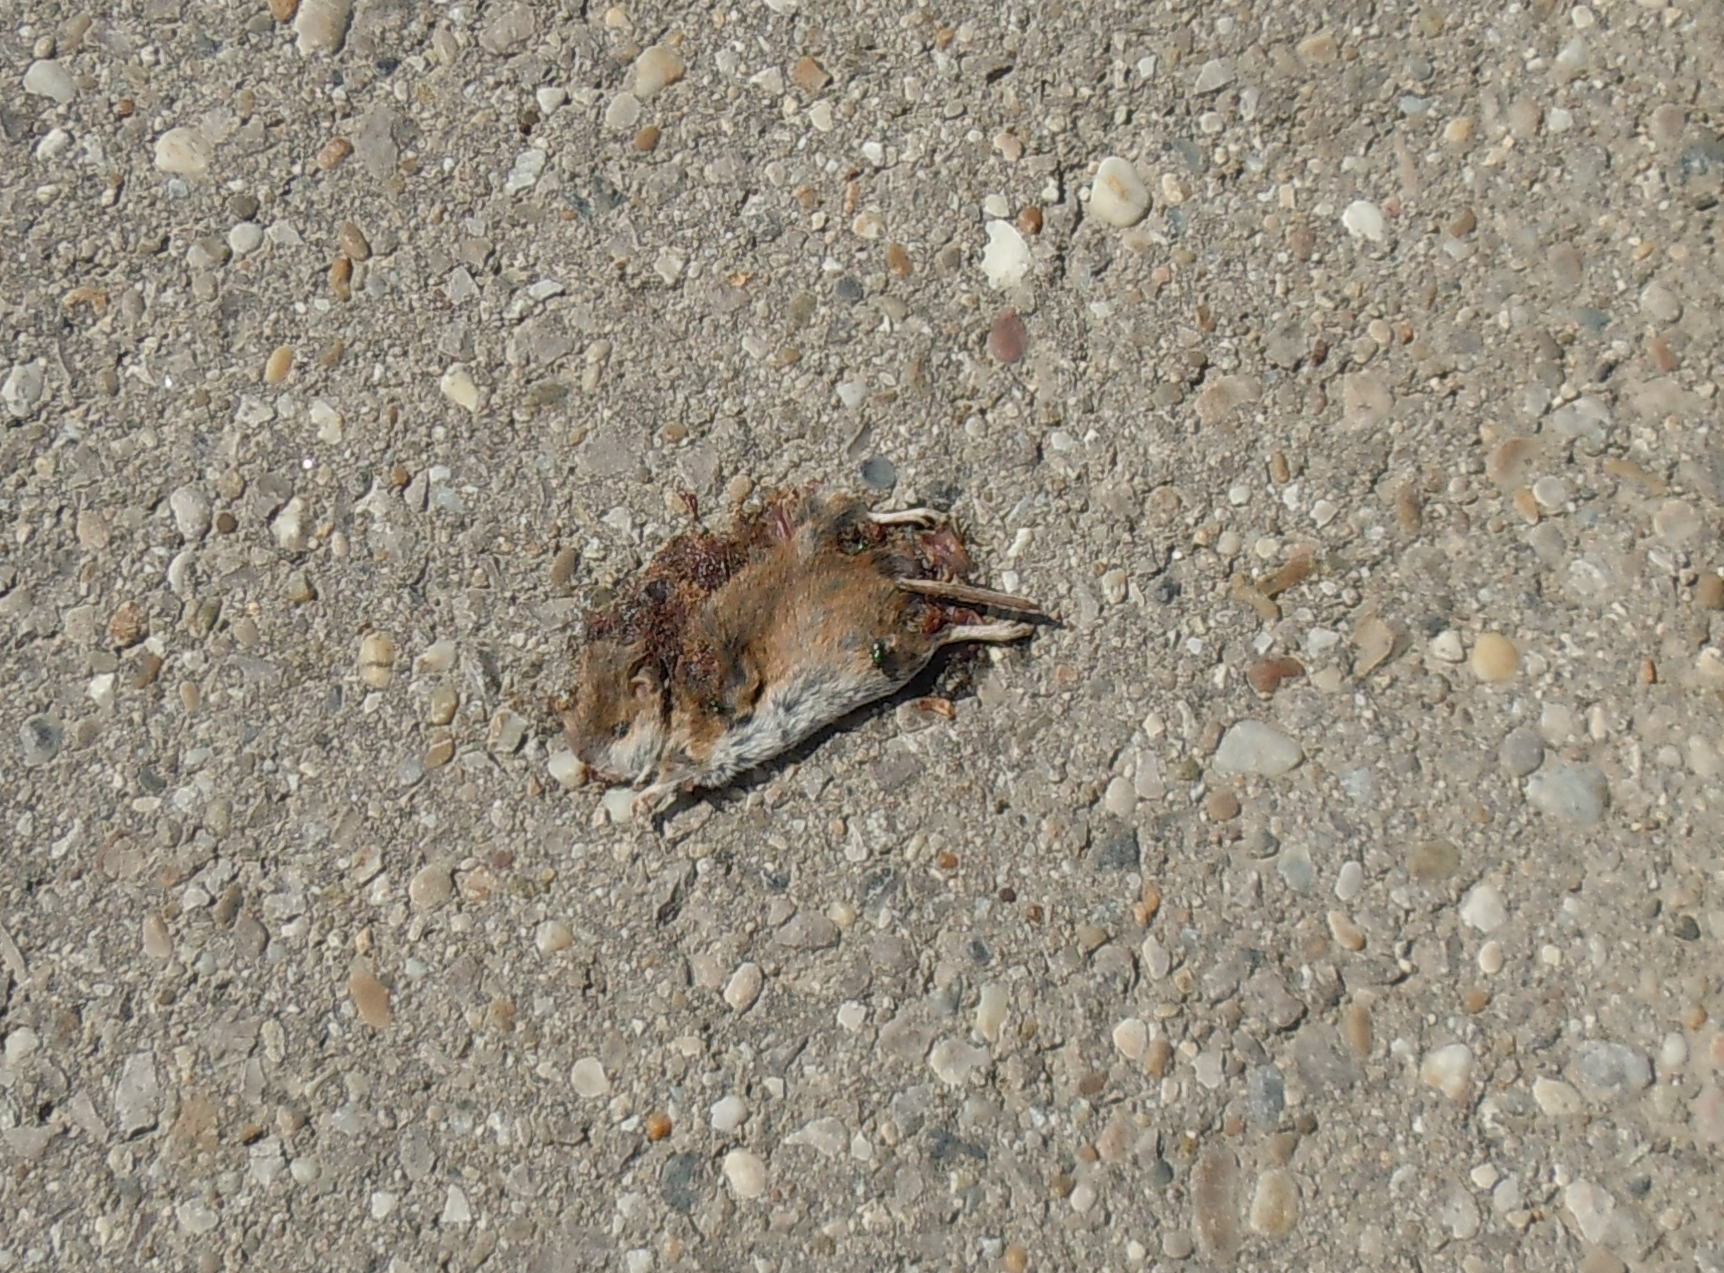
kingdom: Animalia
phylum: Chordata
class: Mammalia
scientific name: Mammalia
